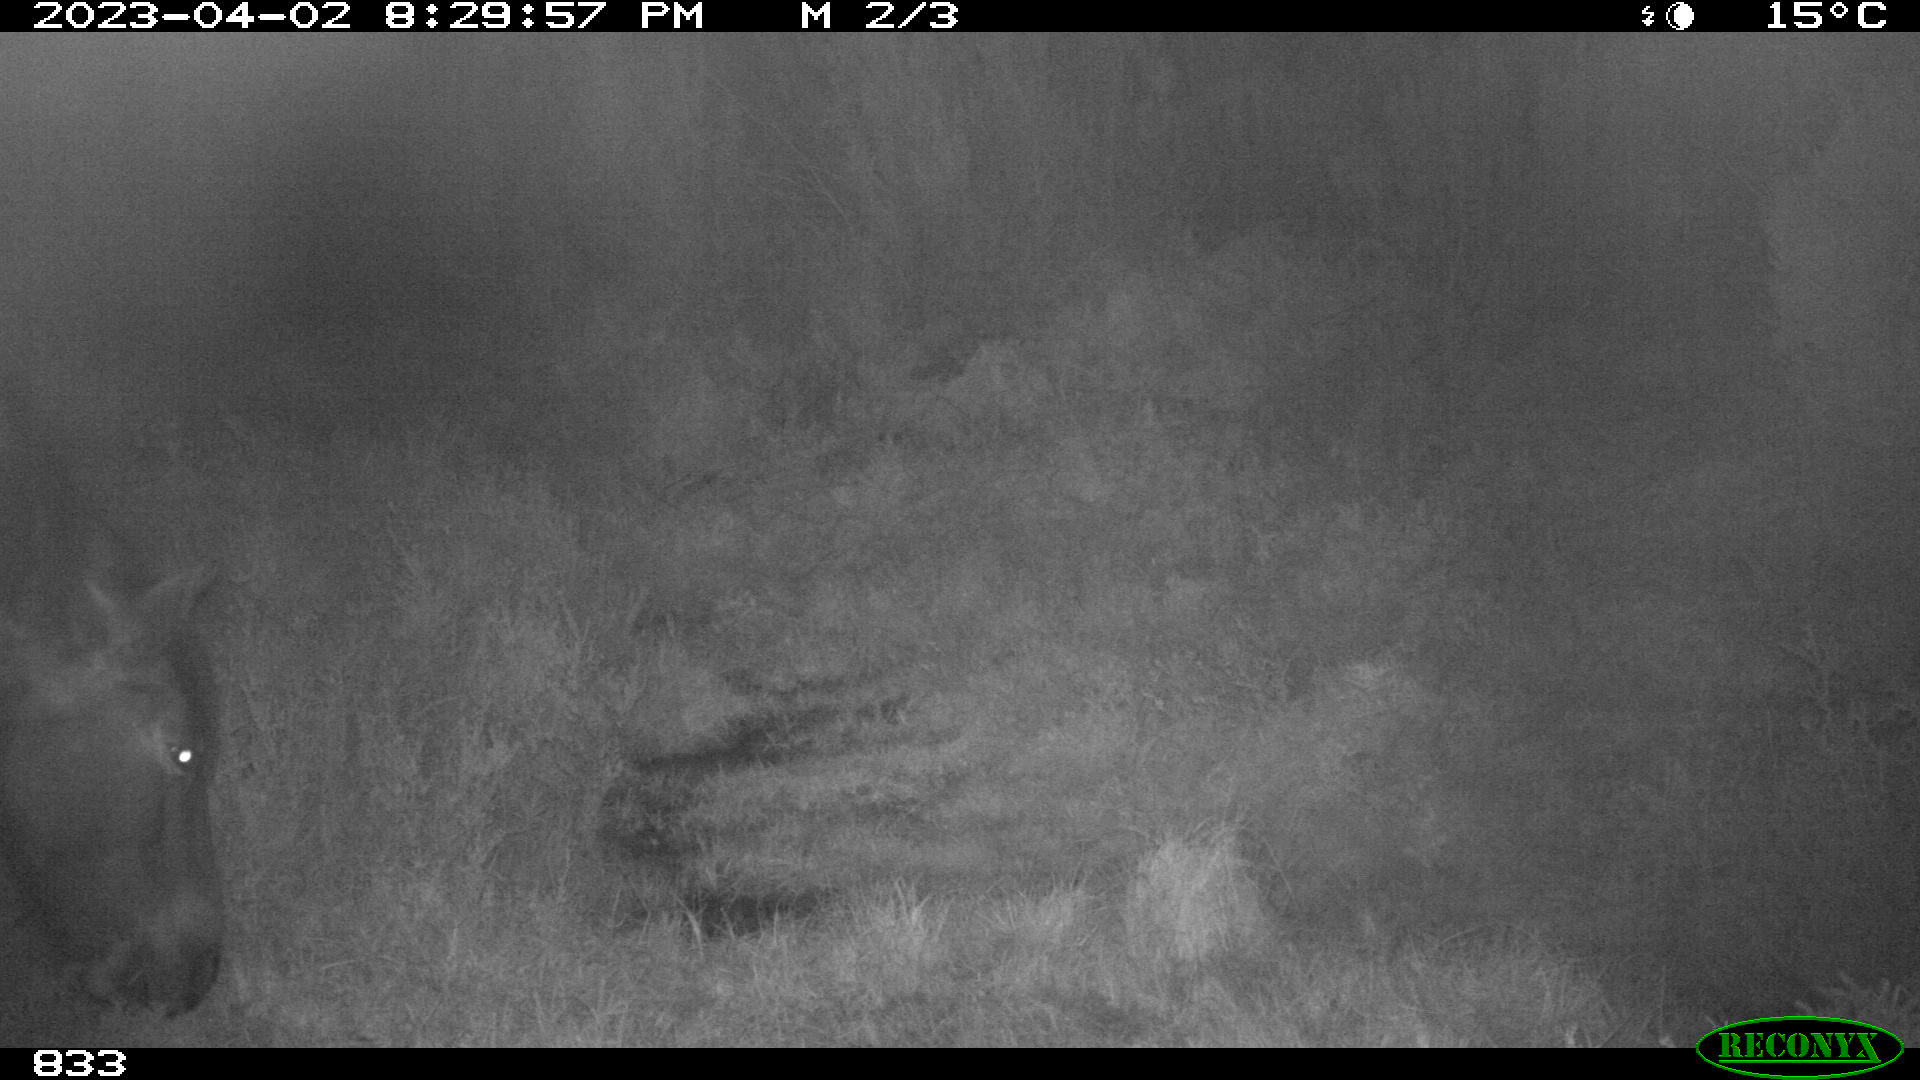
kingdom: Animalia
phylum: Chordata
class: Mammalia
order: Perissodactyla
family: Equidae
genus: Equus
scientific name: Equus caballus
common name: Horse
